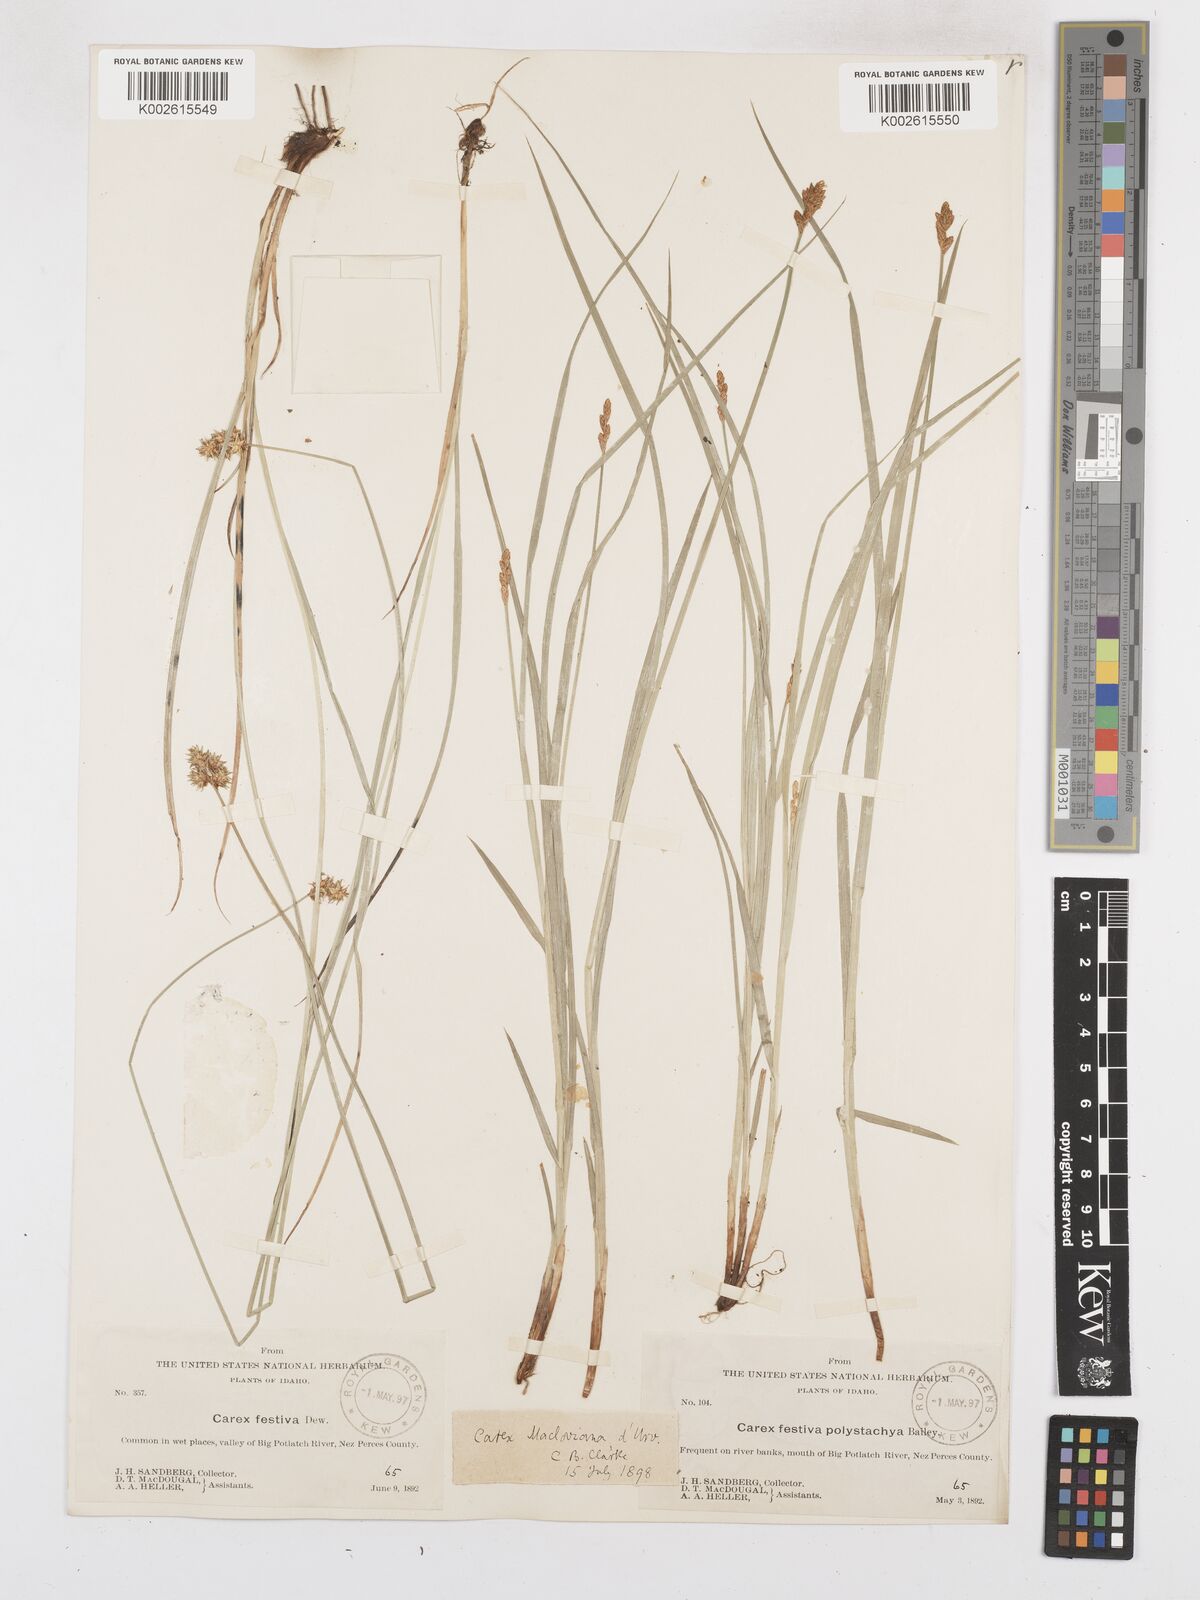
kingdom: Plantae
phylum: Tracheophyta
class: Liliopsida
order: Poales
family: Cyperaceae
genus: Carex
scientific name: Carex macloviana
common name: Falkland island sedge
